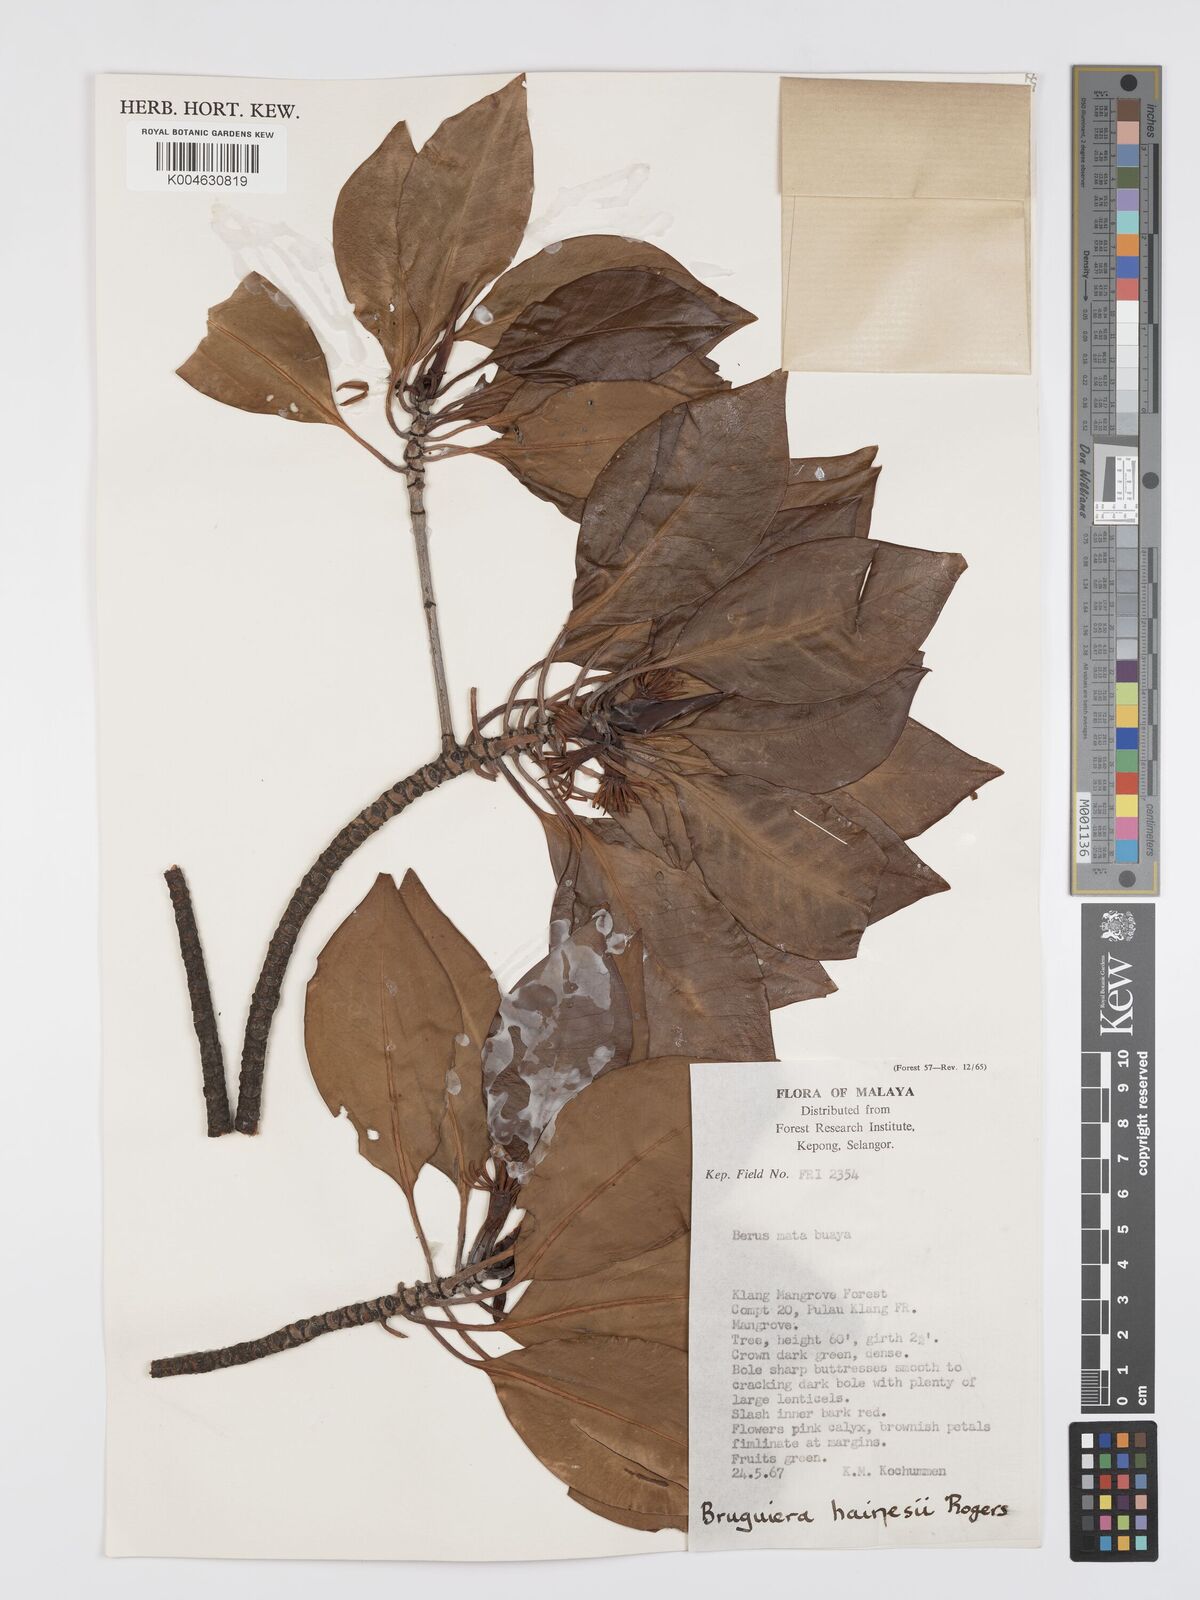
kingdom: Plantae
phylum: Tracheophyta
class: Magnoliopsida
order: Malpighiales
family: Rhizophoraceae
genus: Bruguiera
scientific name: Bruguiera hainesii
